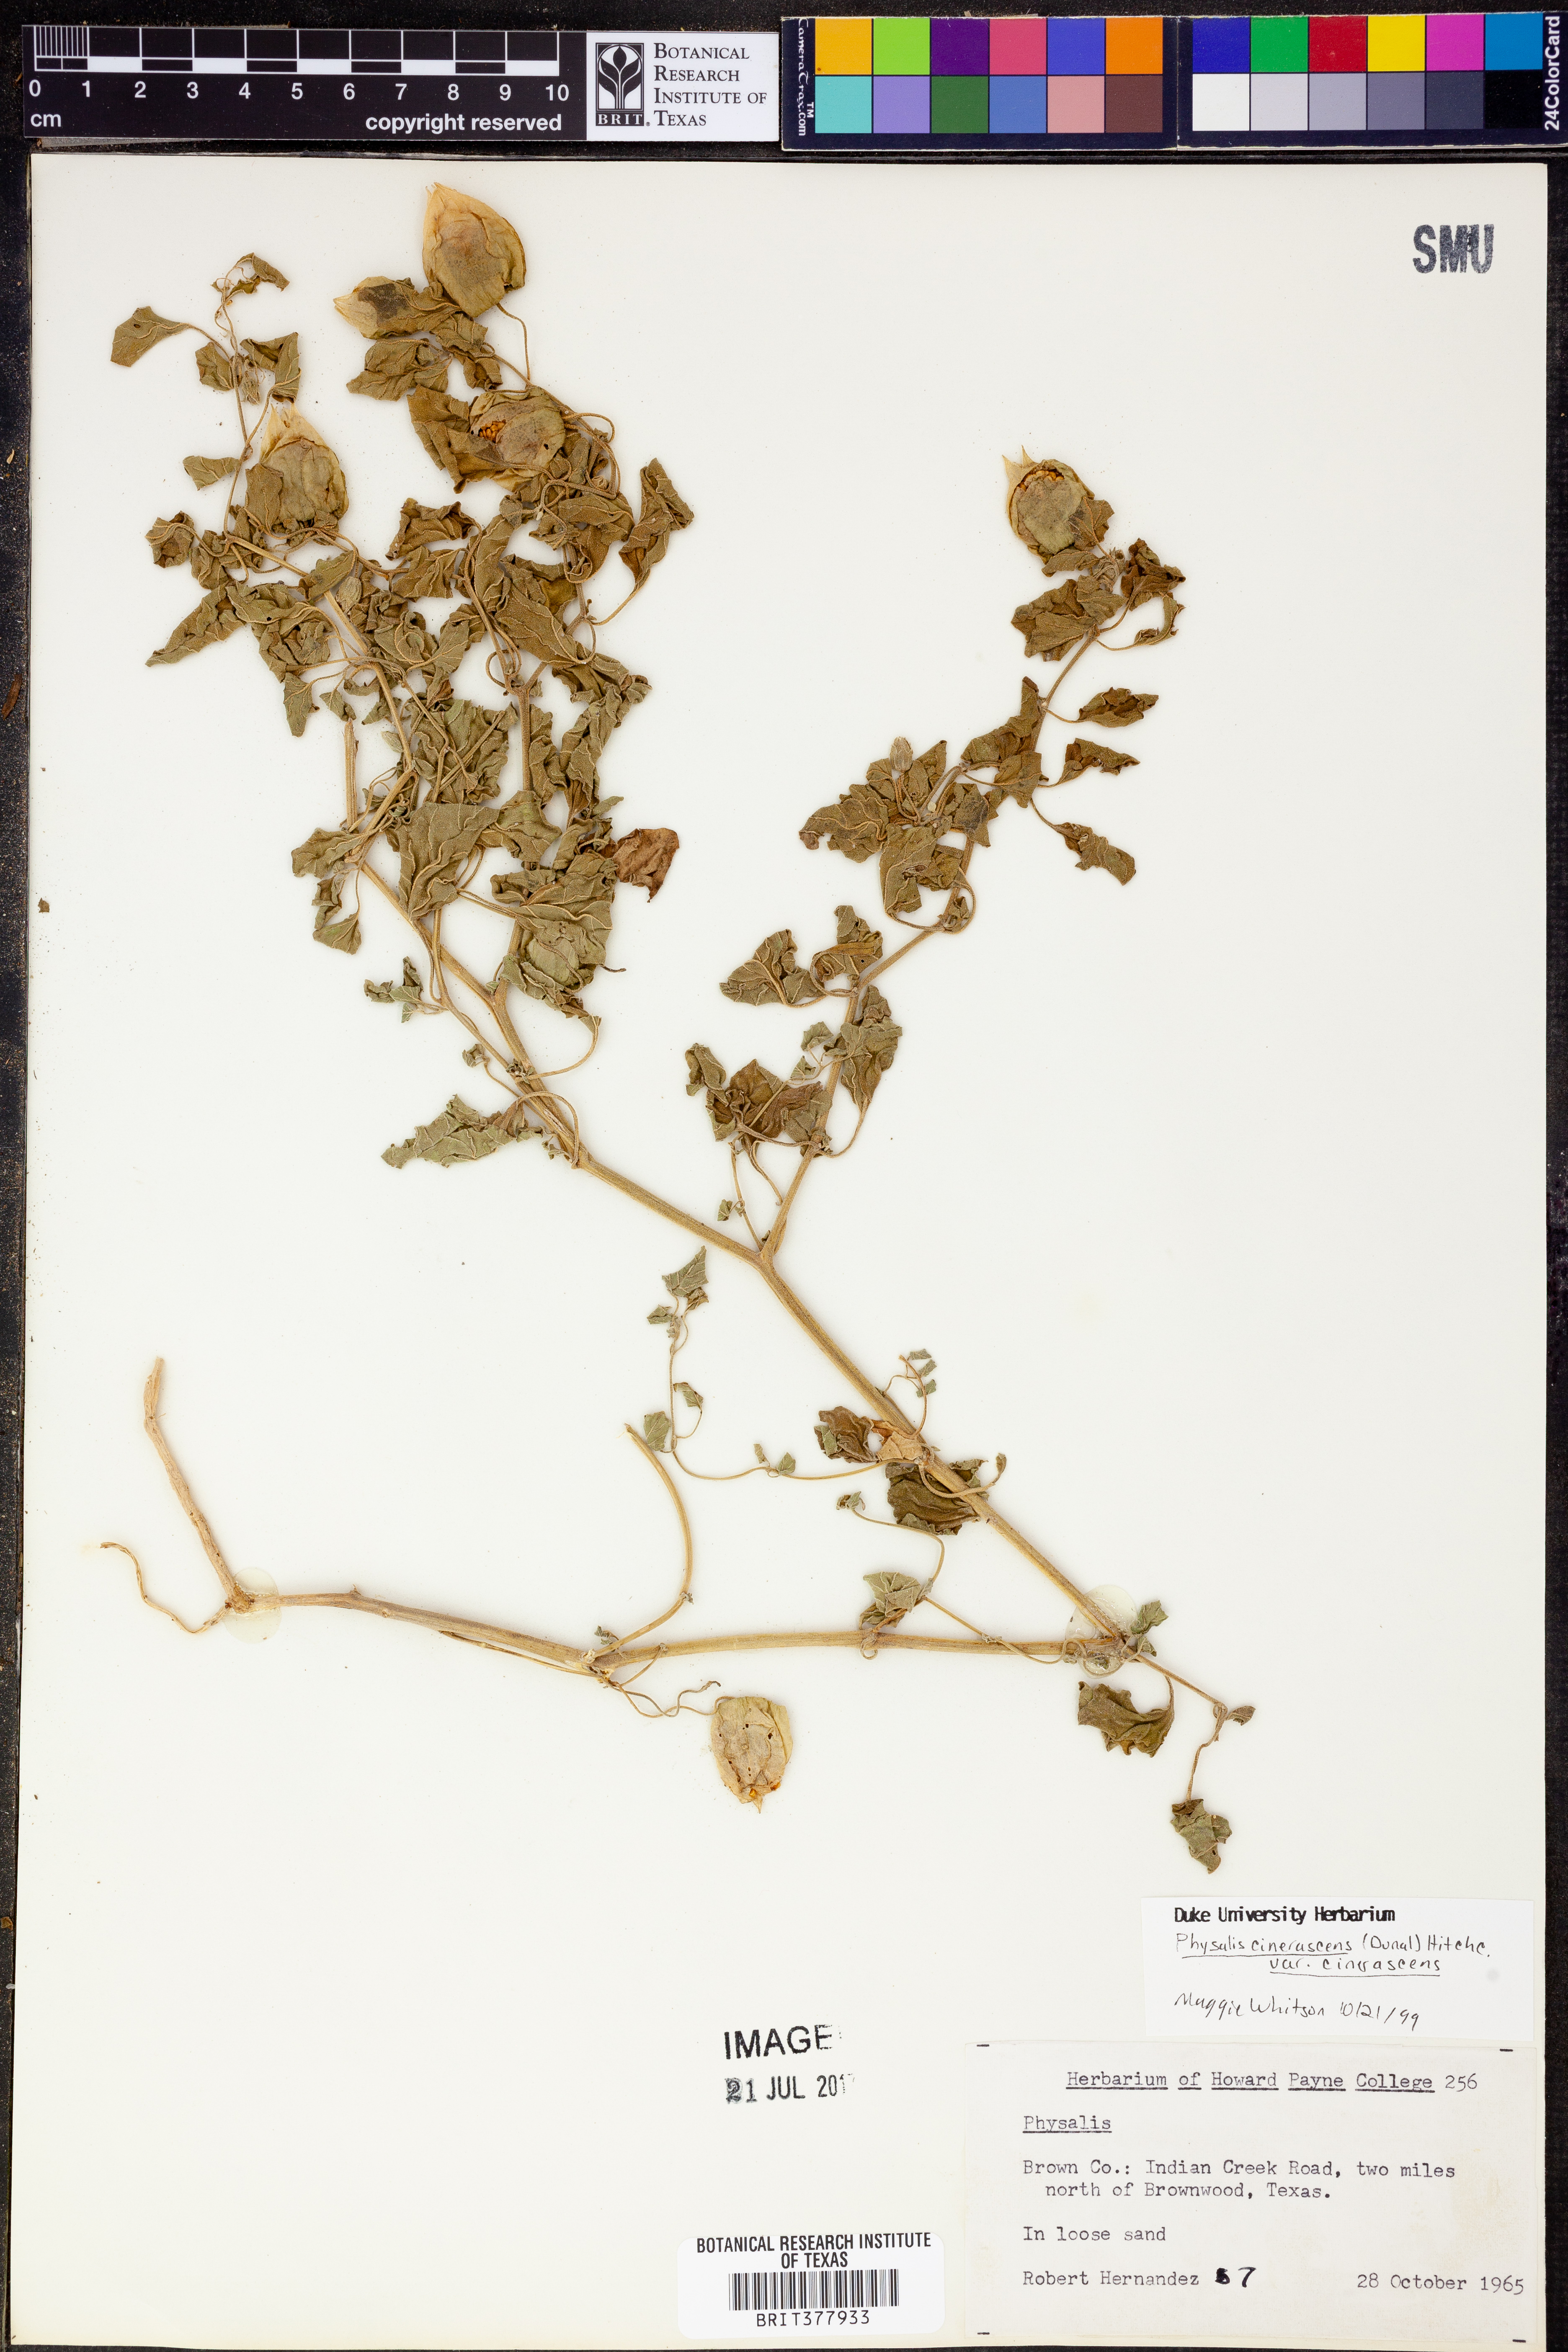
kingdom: Plantae
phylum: Tracheophyta
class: Magnoliopsida
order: Solanales
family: Solanaceae
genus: Physalis
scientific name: Physalis cinerascens
